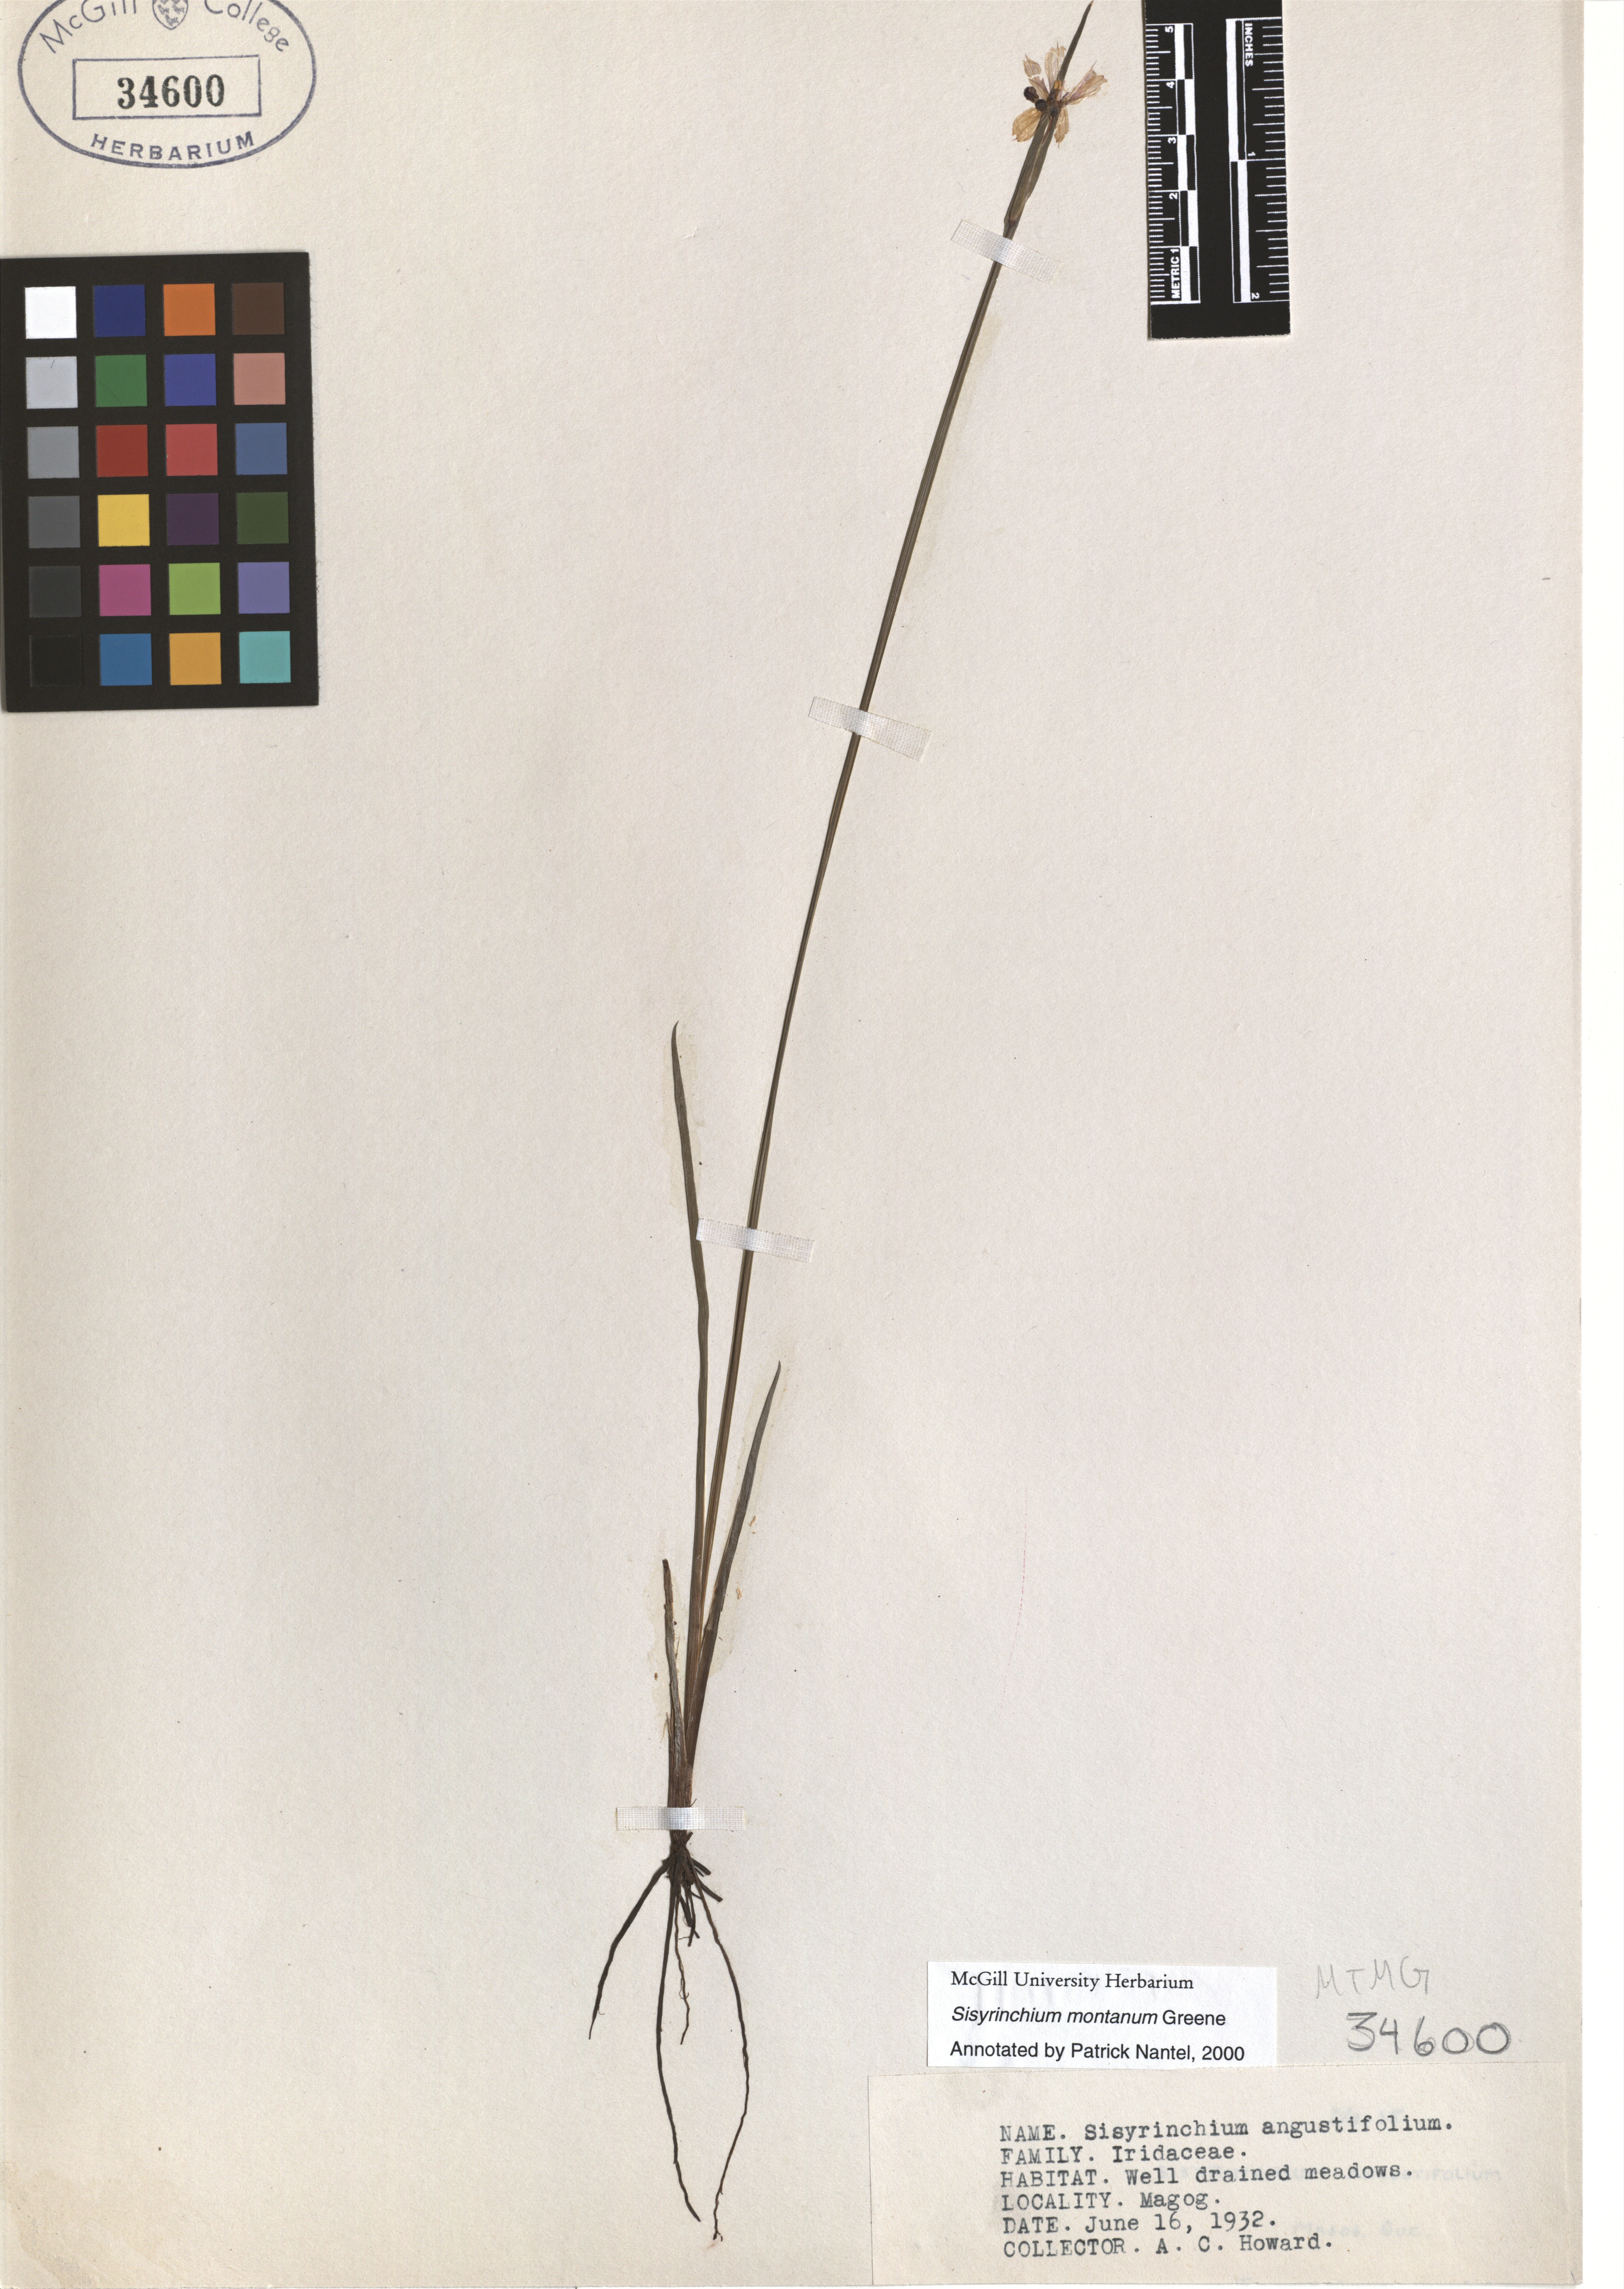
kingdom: Plantae
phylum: Tracheophyta
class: Liliopsida
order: Asparagales
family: Iridaceae
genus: Sisyrinchium
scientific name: Sisyrinchium montanum
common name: American blue-eyed-grass
